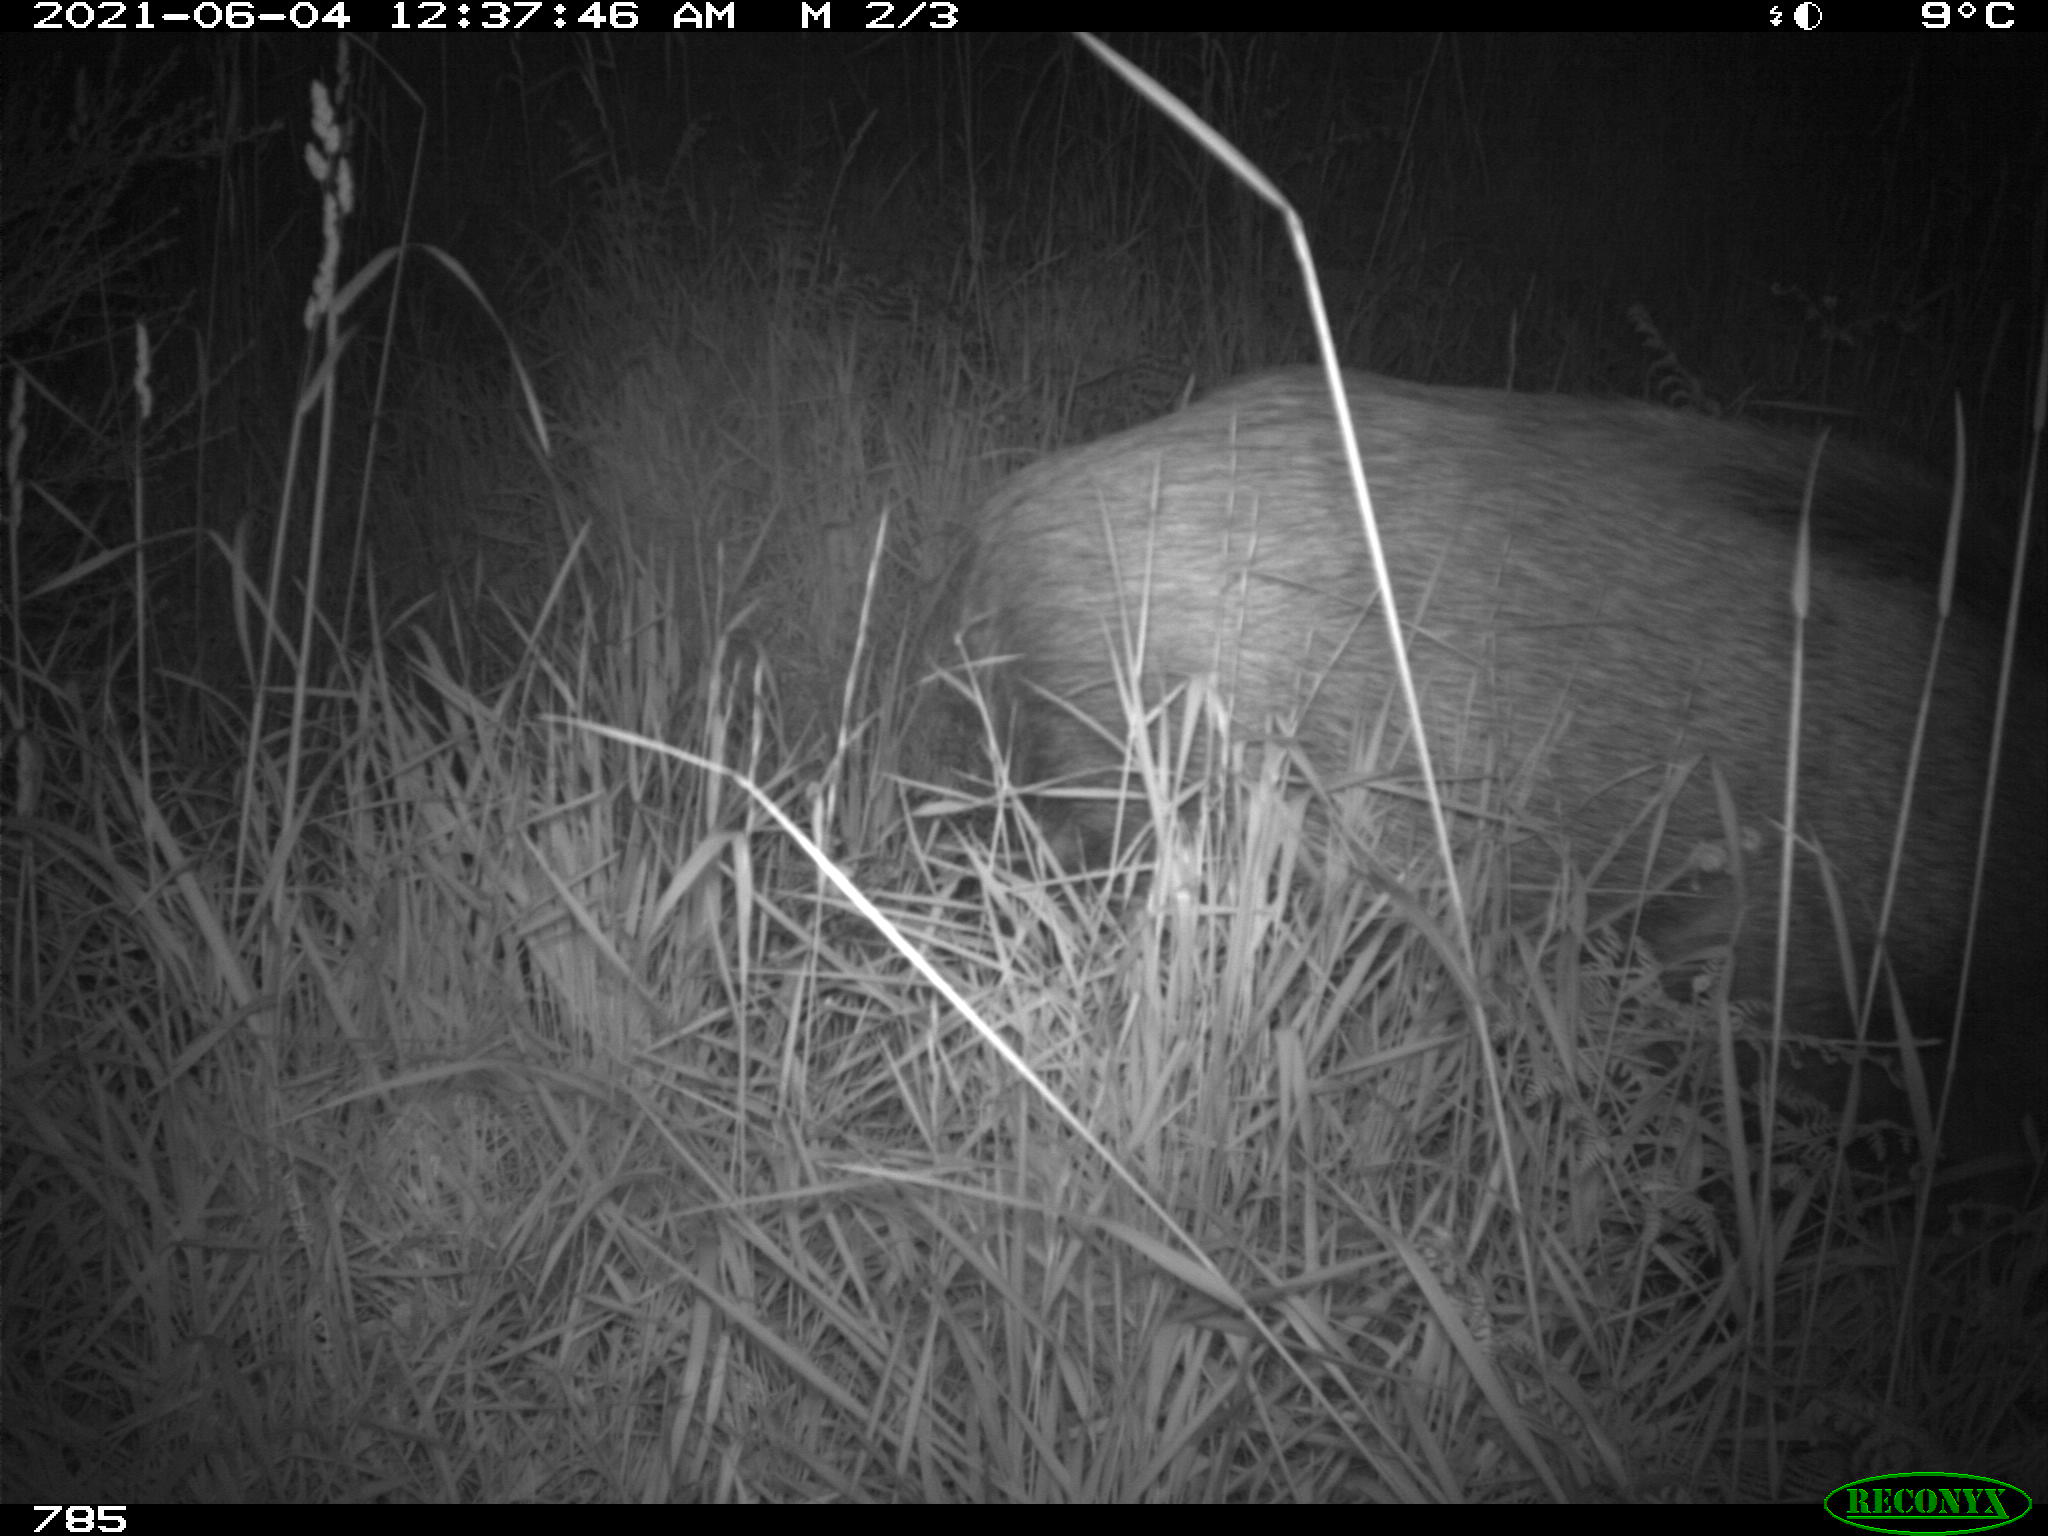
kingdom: Animalia
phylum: Chordata
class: Mammalia
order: Artiodactyla
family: Suidae
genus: Sus
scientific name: Sus scrofa
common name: Wild boar
